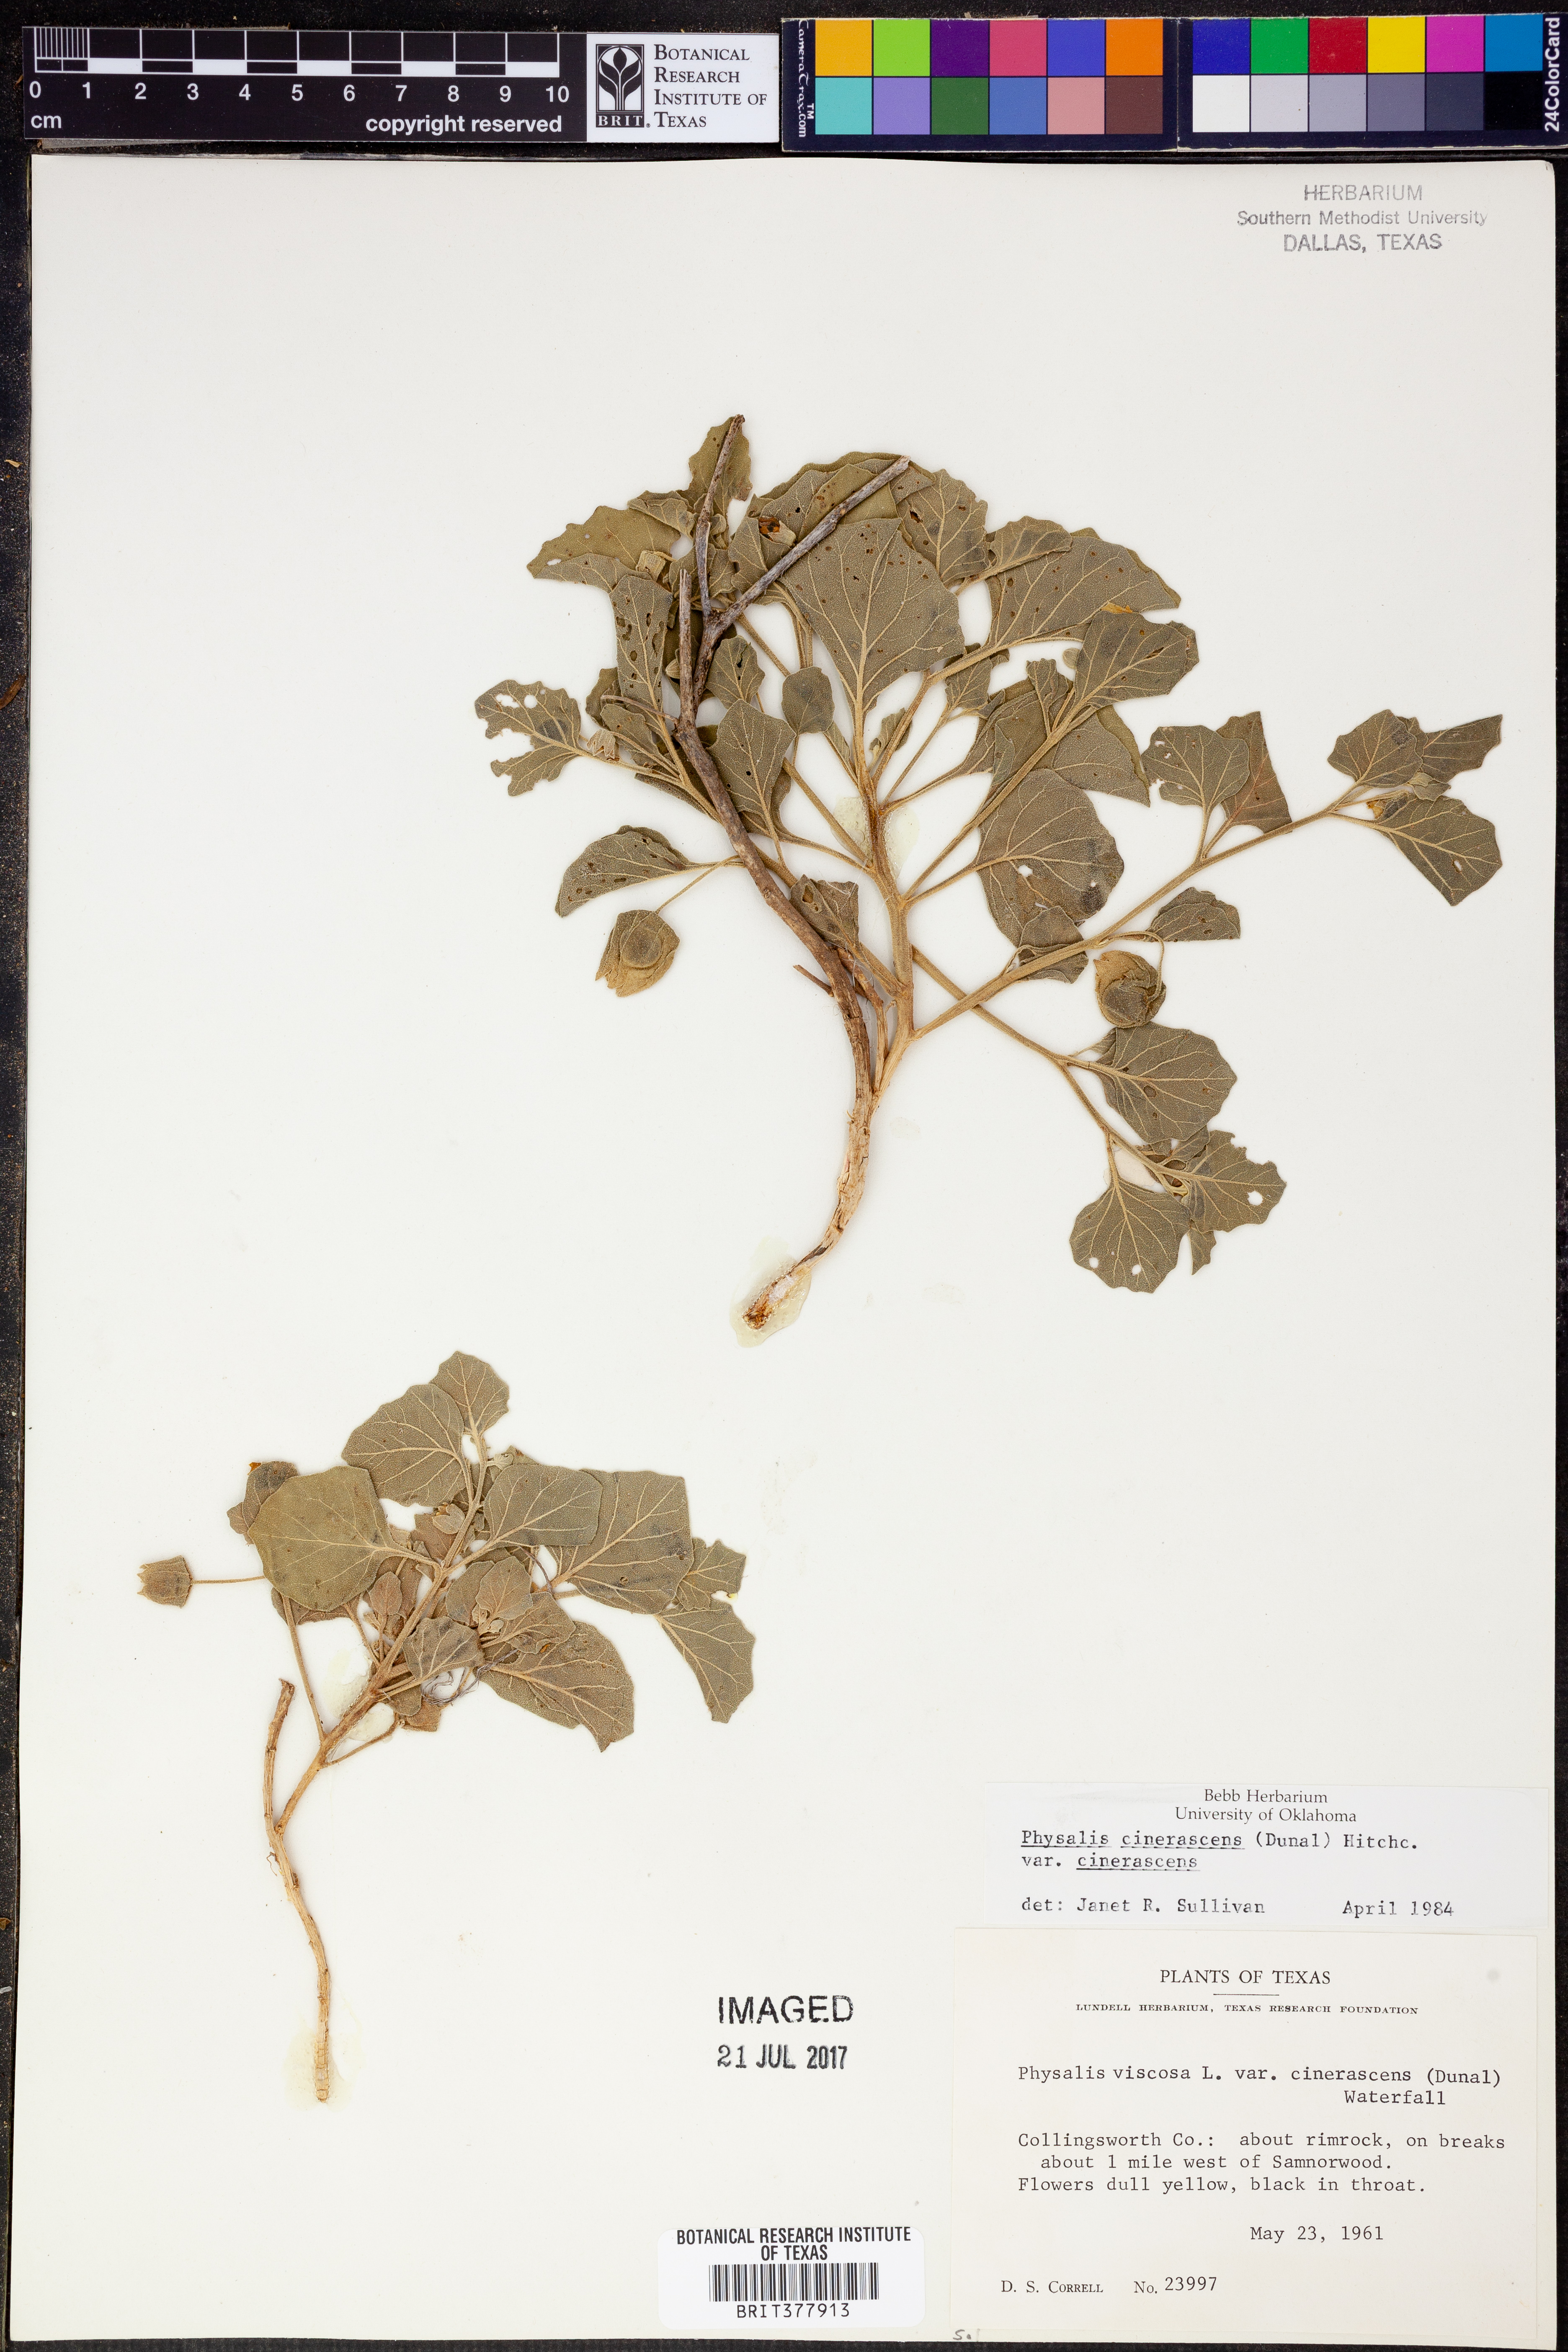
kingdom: Plantae
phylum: Tracheophyta
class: Magnoliopsida
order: Solanales
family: Solanaceae
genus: Physalis
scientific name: Physalis cinerascens
